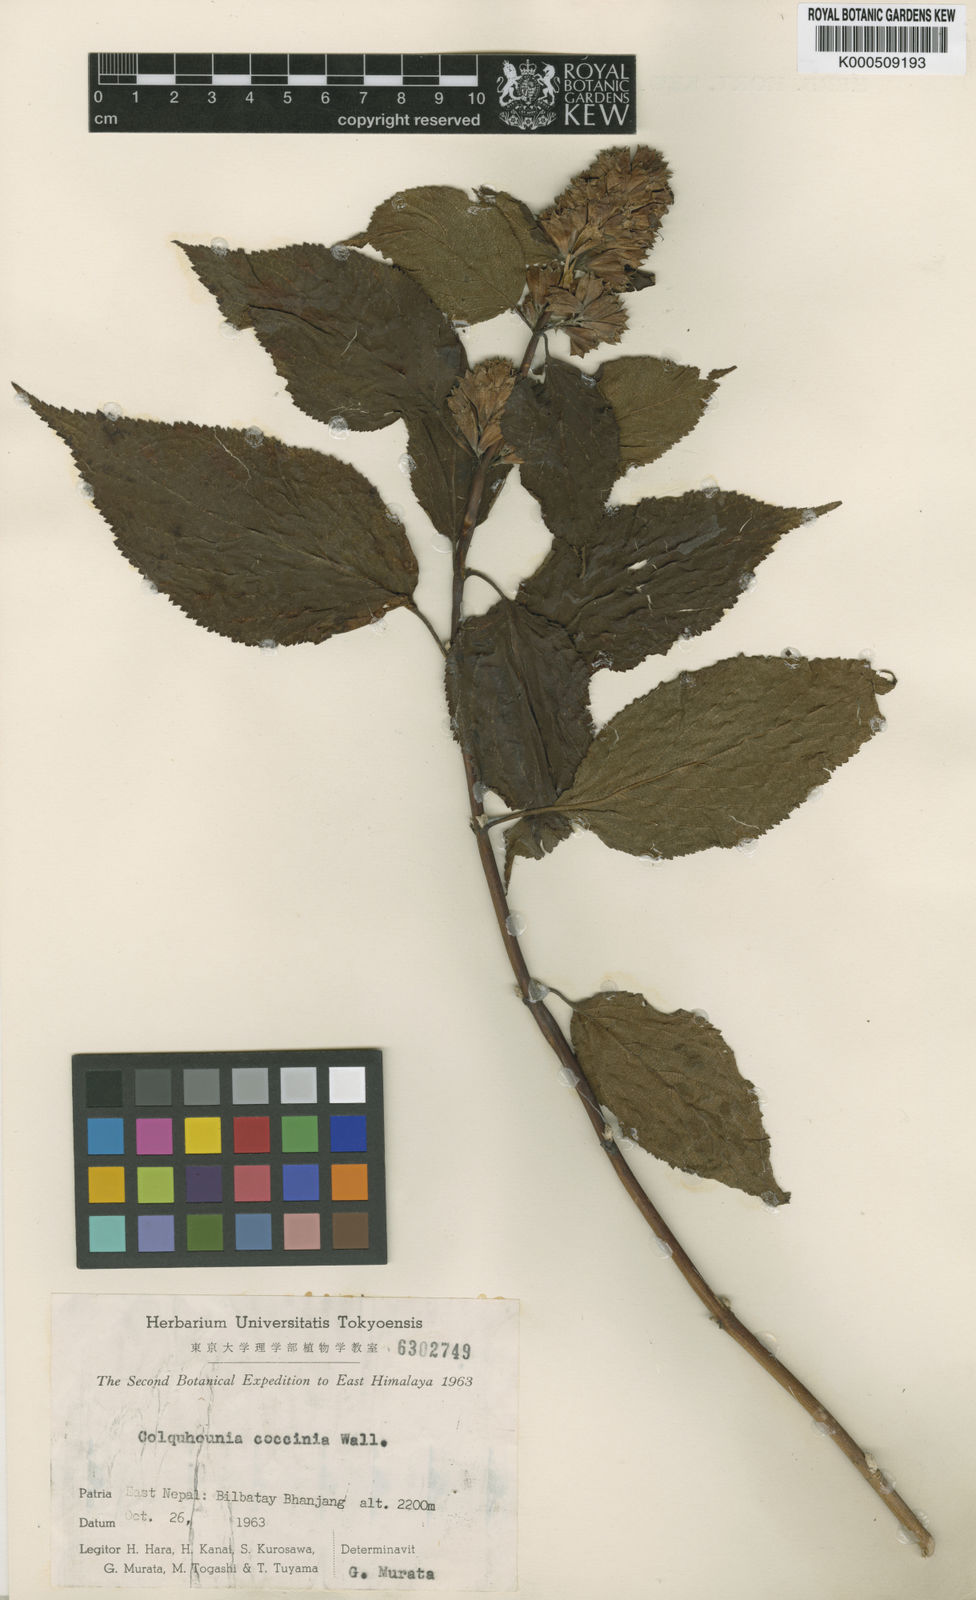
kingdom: Plantae
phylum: Tracheophyta
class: Magnoliopsida
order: Lamiales
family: Lamiaceae
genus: Colquhounia
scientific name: Colquhounia coccinea
